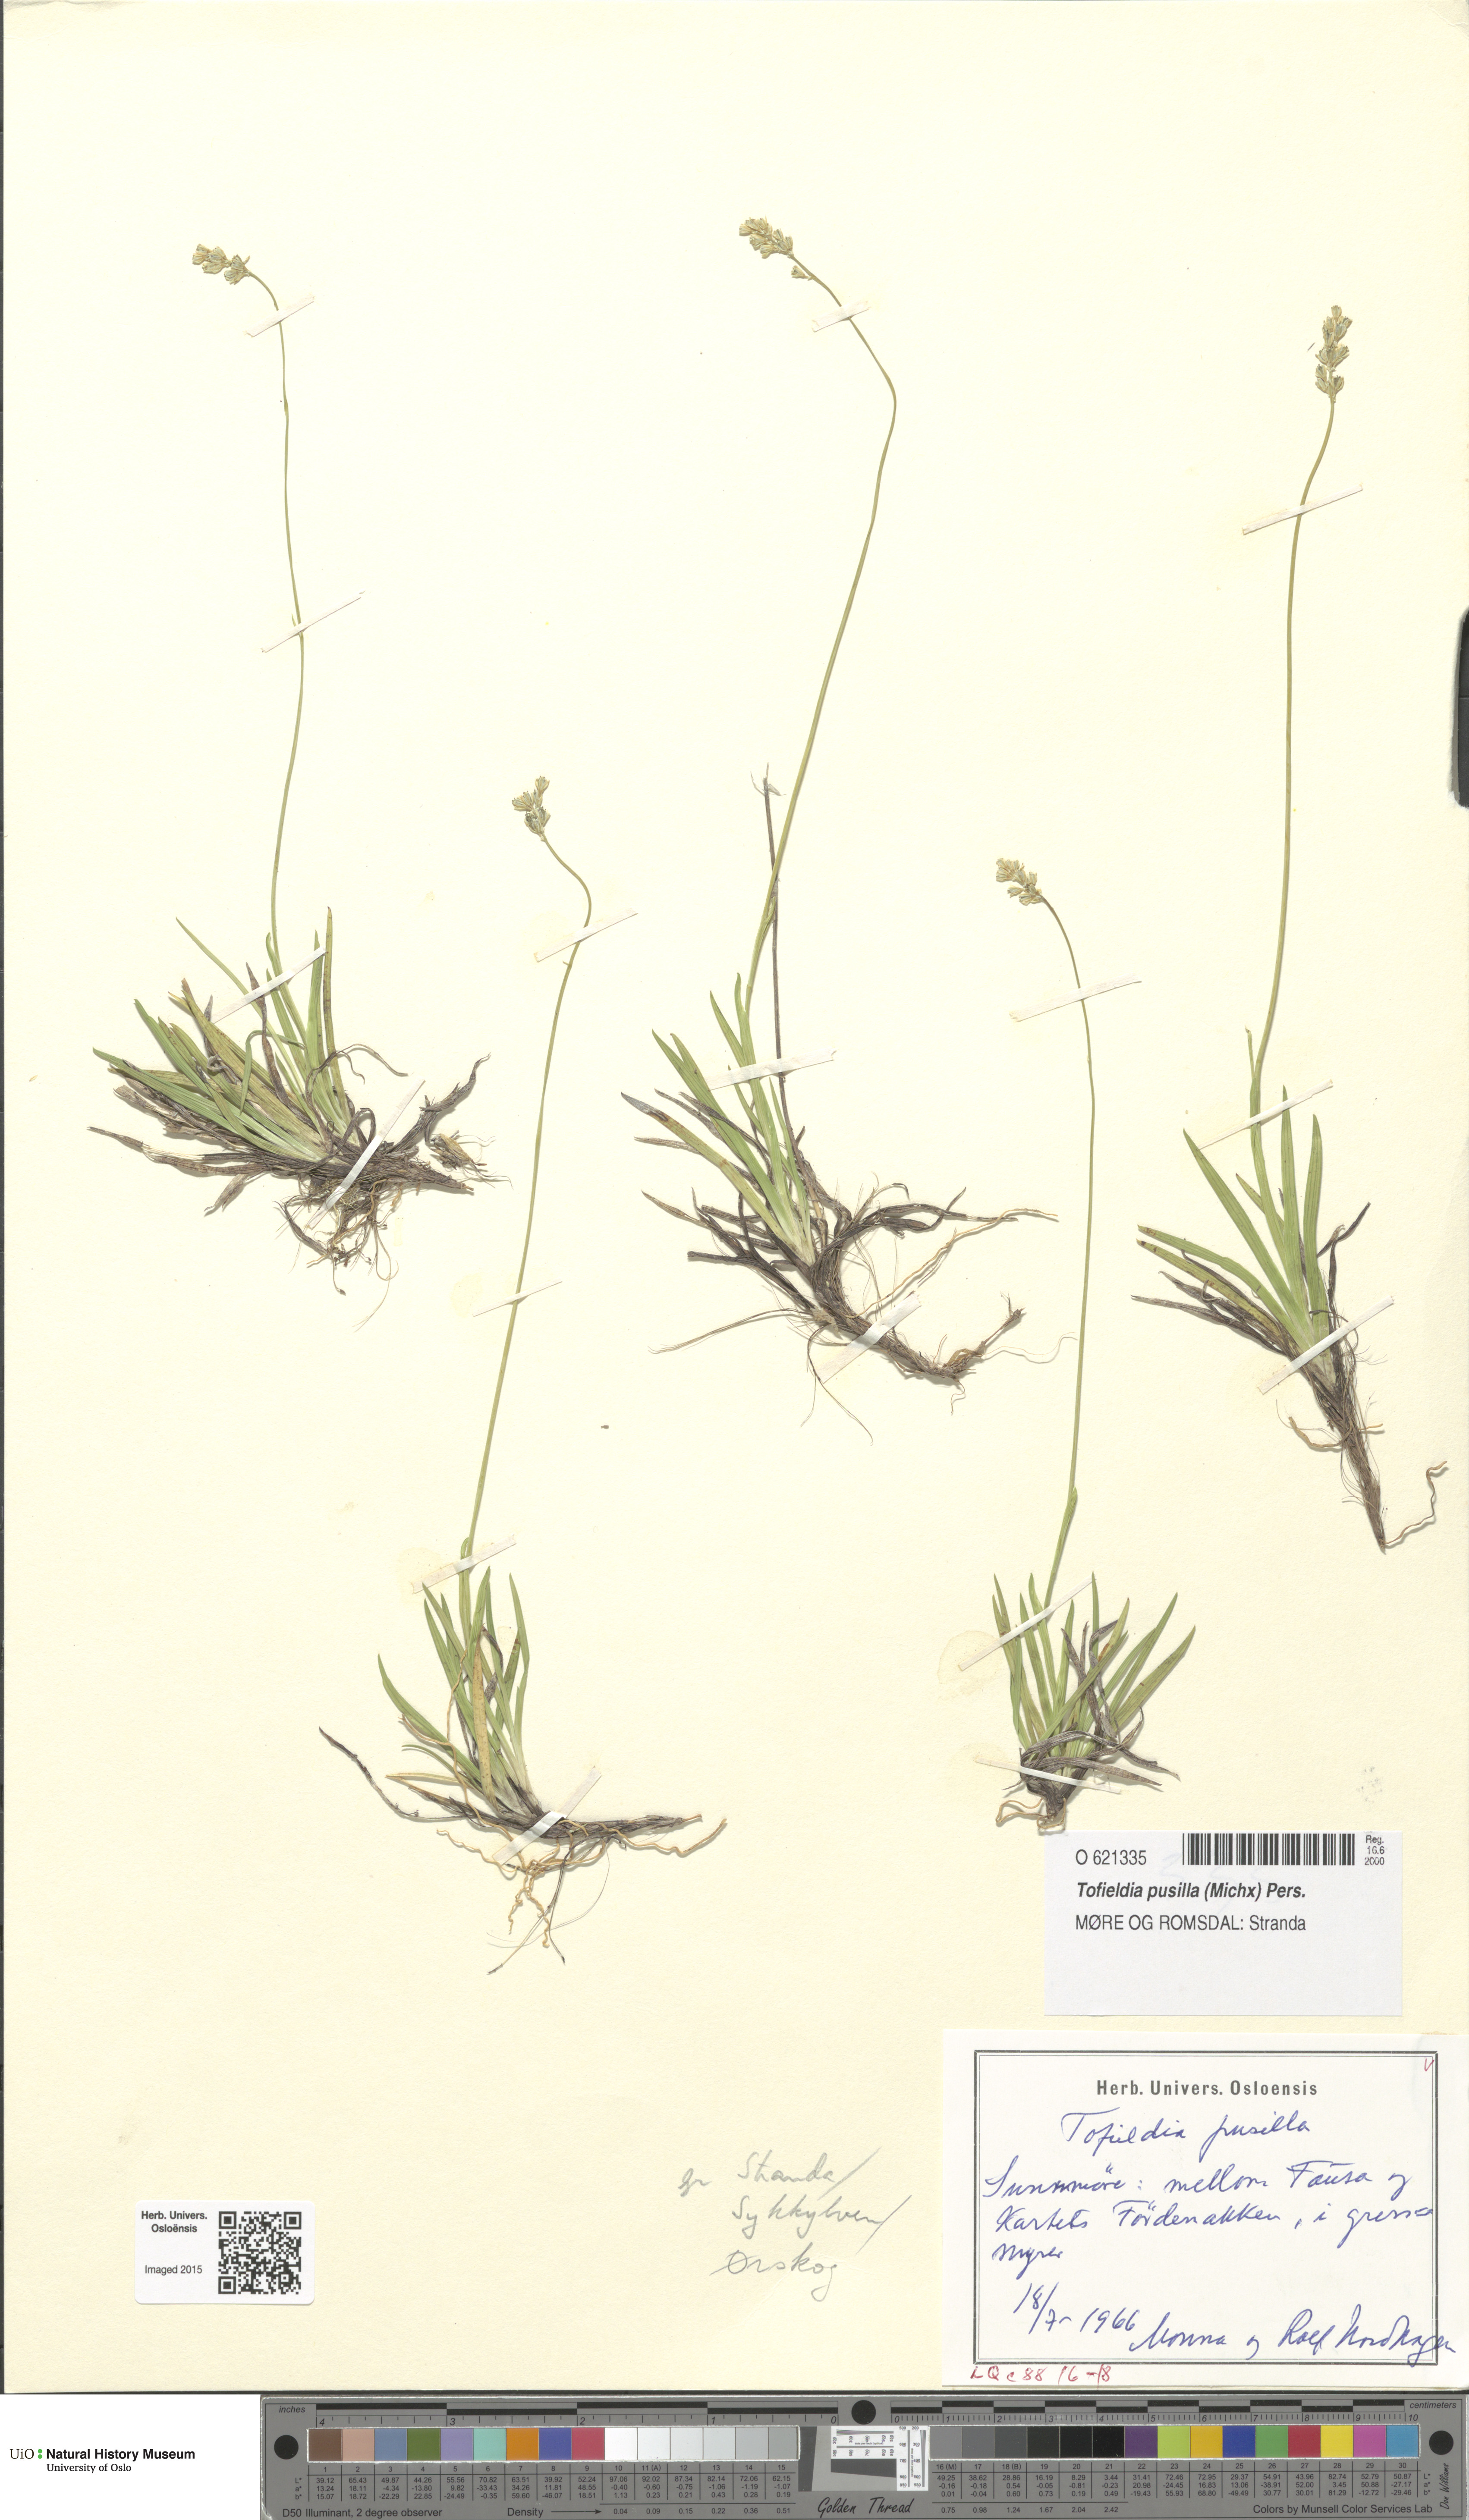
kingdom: Plantae
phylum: Tracheophyta
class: Liliopsida
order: Alismatales
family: Tofieldiaceae
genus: Tofieldia
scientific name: Tofieldia pusilla
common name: Scottish false asphodel
